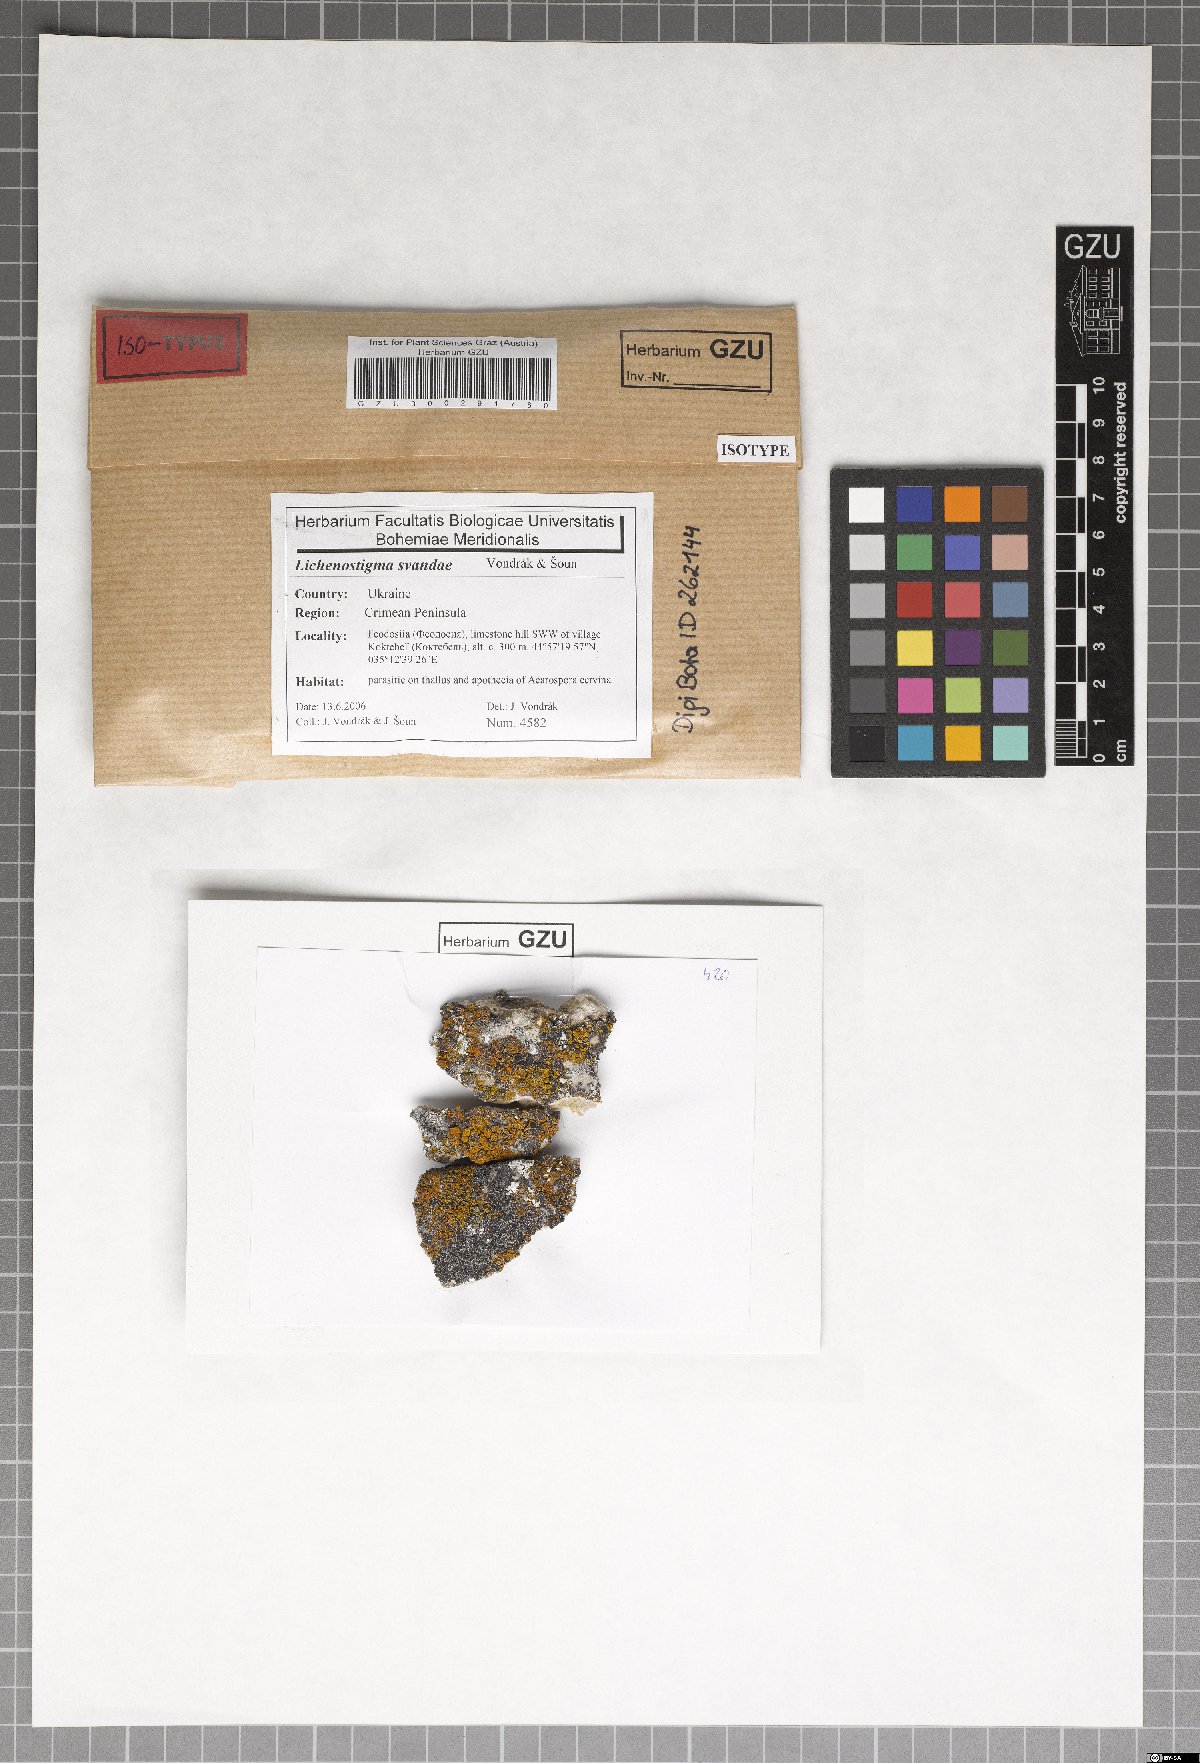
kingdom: Fungi
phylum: Ascomycota
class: Arthoniomycetes
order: Lichenostigmatales
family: Phaeococcomycetaceae
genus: Lichenostigma
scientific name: Lichenostigma svandae
